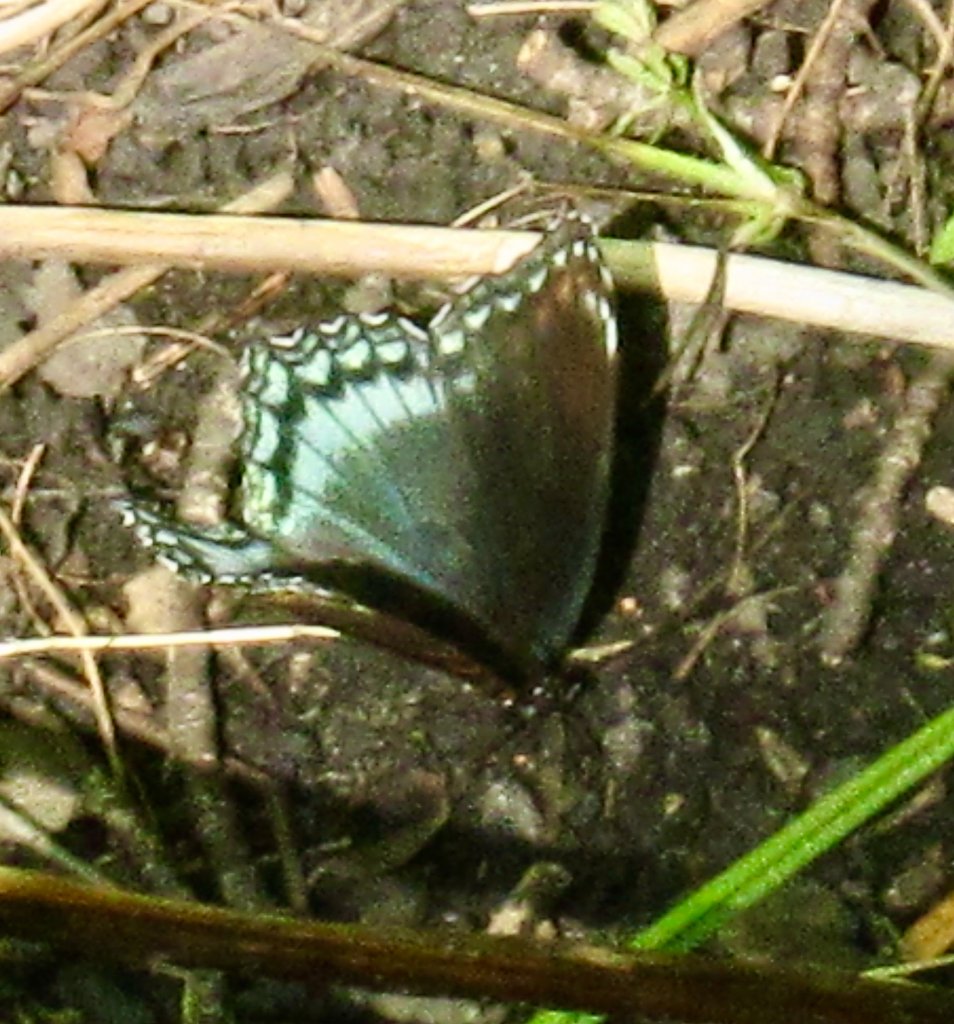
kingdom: Animalia
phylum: Arthropoda
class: Insecta
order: Lepidoptera
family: Nymphalidae
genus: Limenitis
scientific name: Limenitis astyanax
